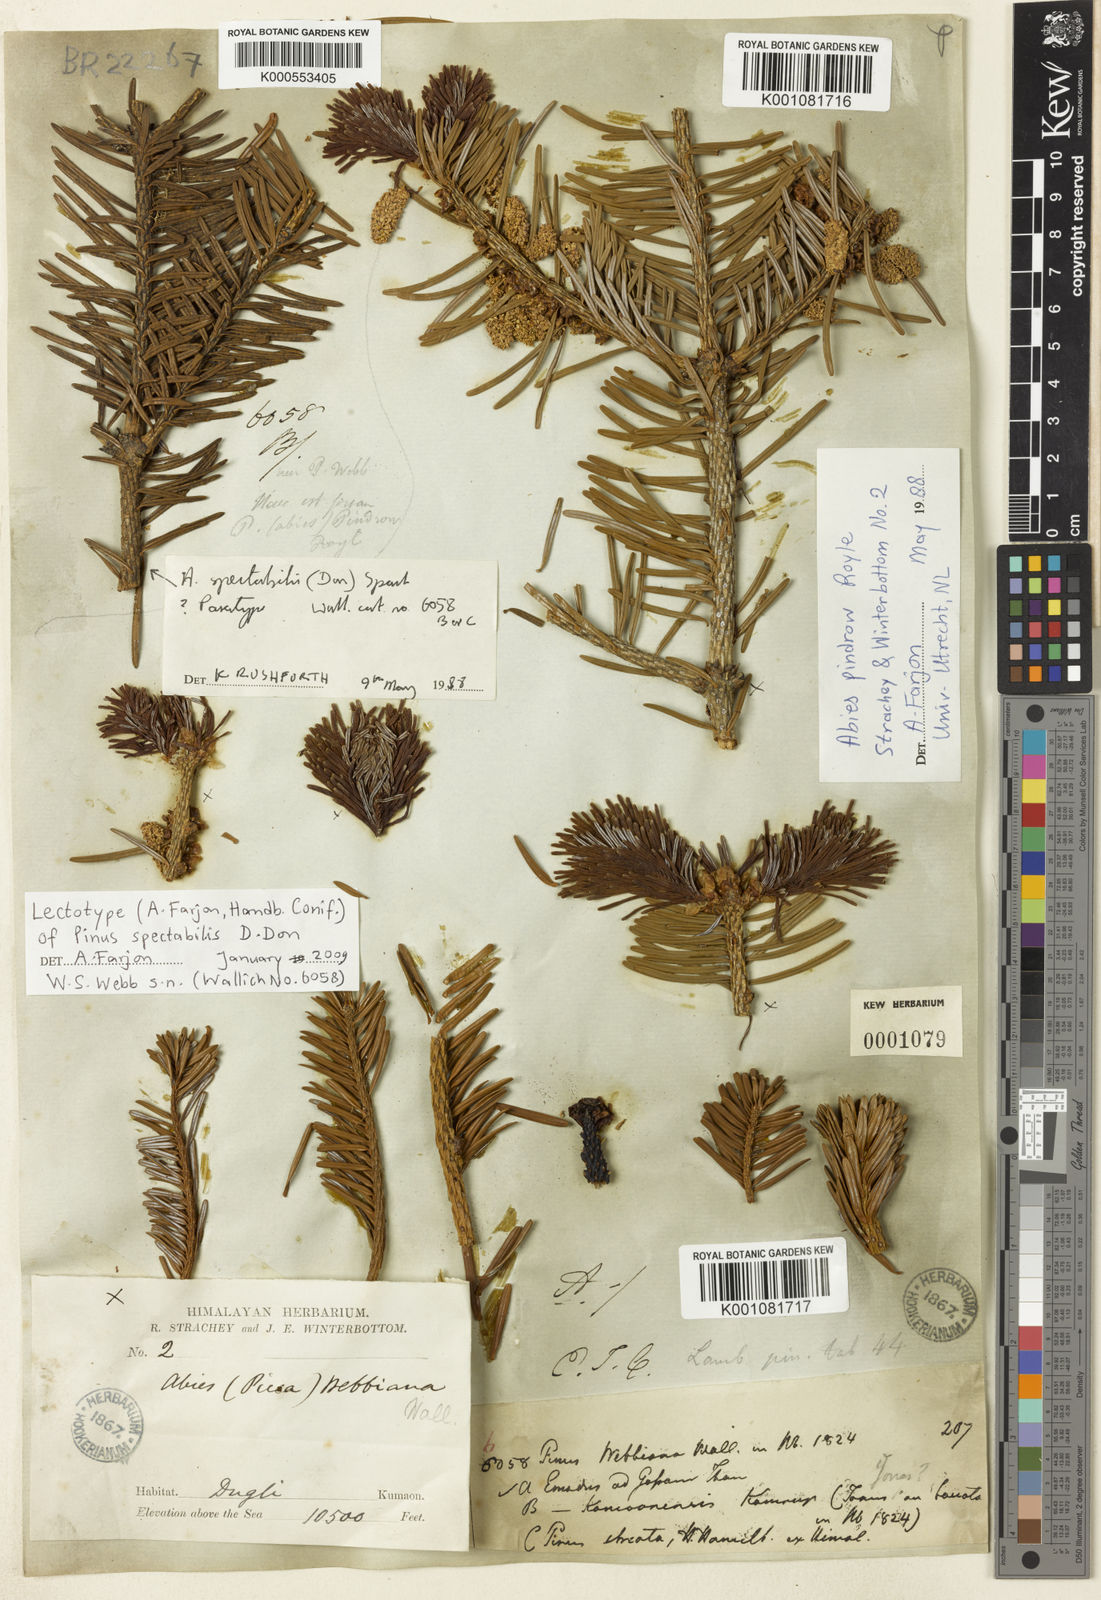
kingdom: Plantae
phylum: Tracheophyta
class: Pinopsida
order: Pinales
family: Pinaceae
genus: Abies
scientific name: Abies spectabilis
